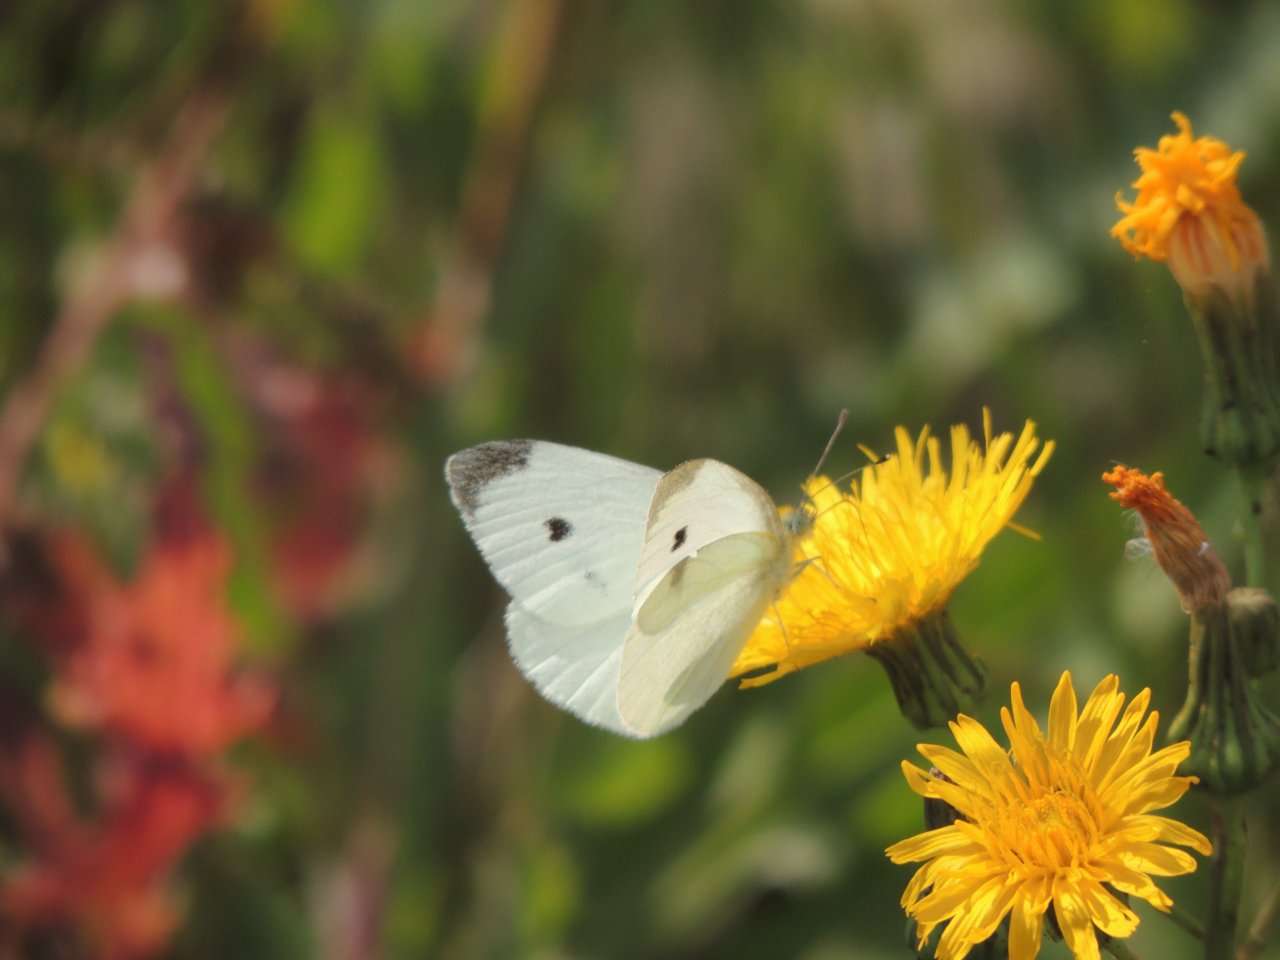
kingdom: Animalia
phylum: Arthropoda
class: Insecta
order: Lepidoptera
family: Pieridae
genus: Pieris
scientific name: Pieris rapae
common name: Cabbage White
